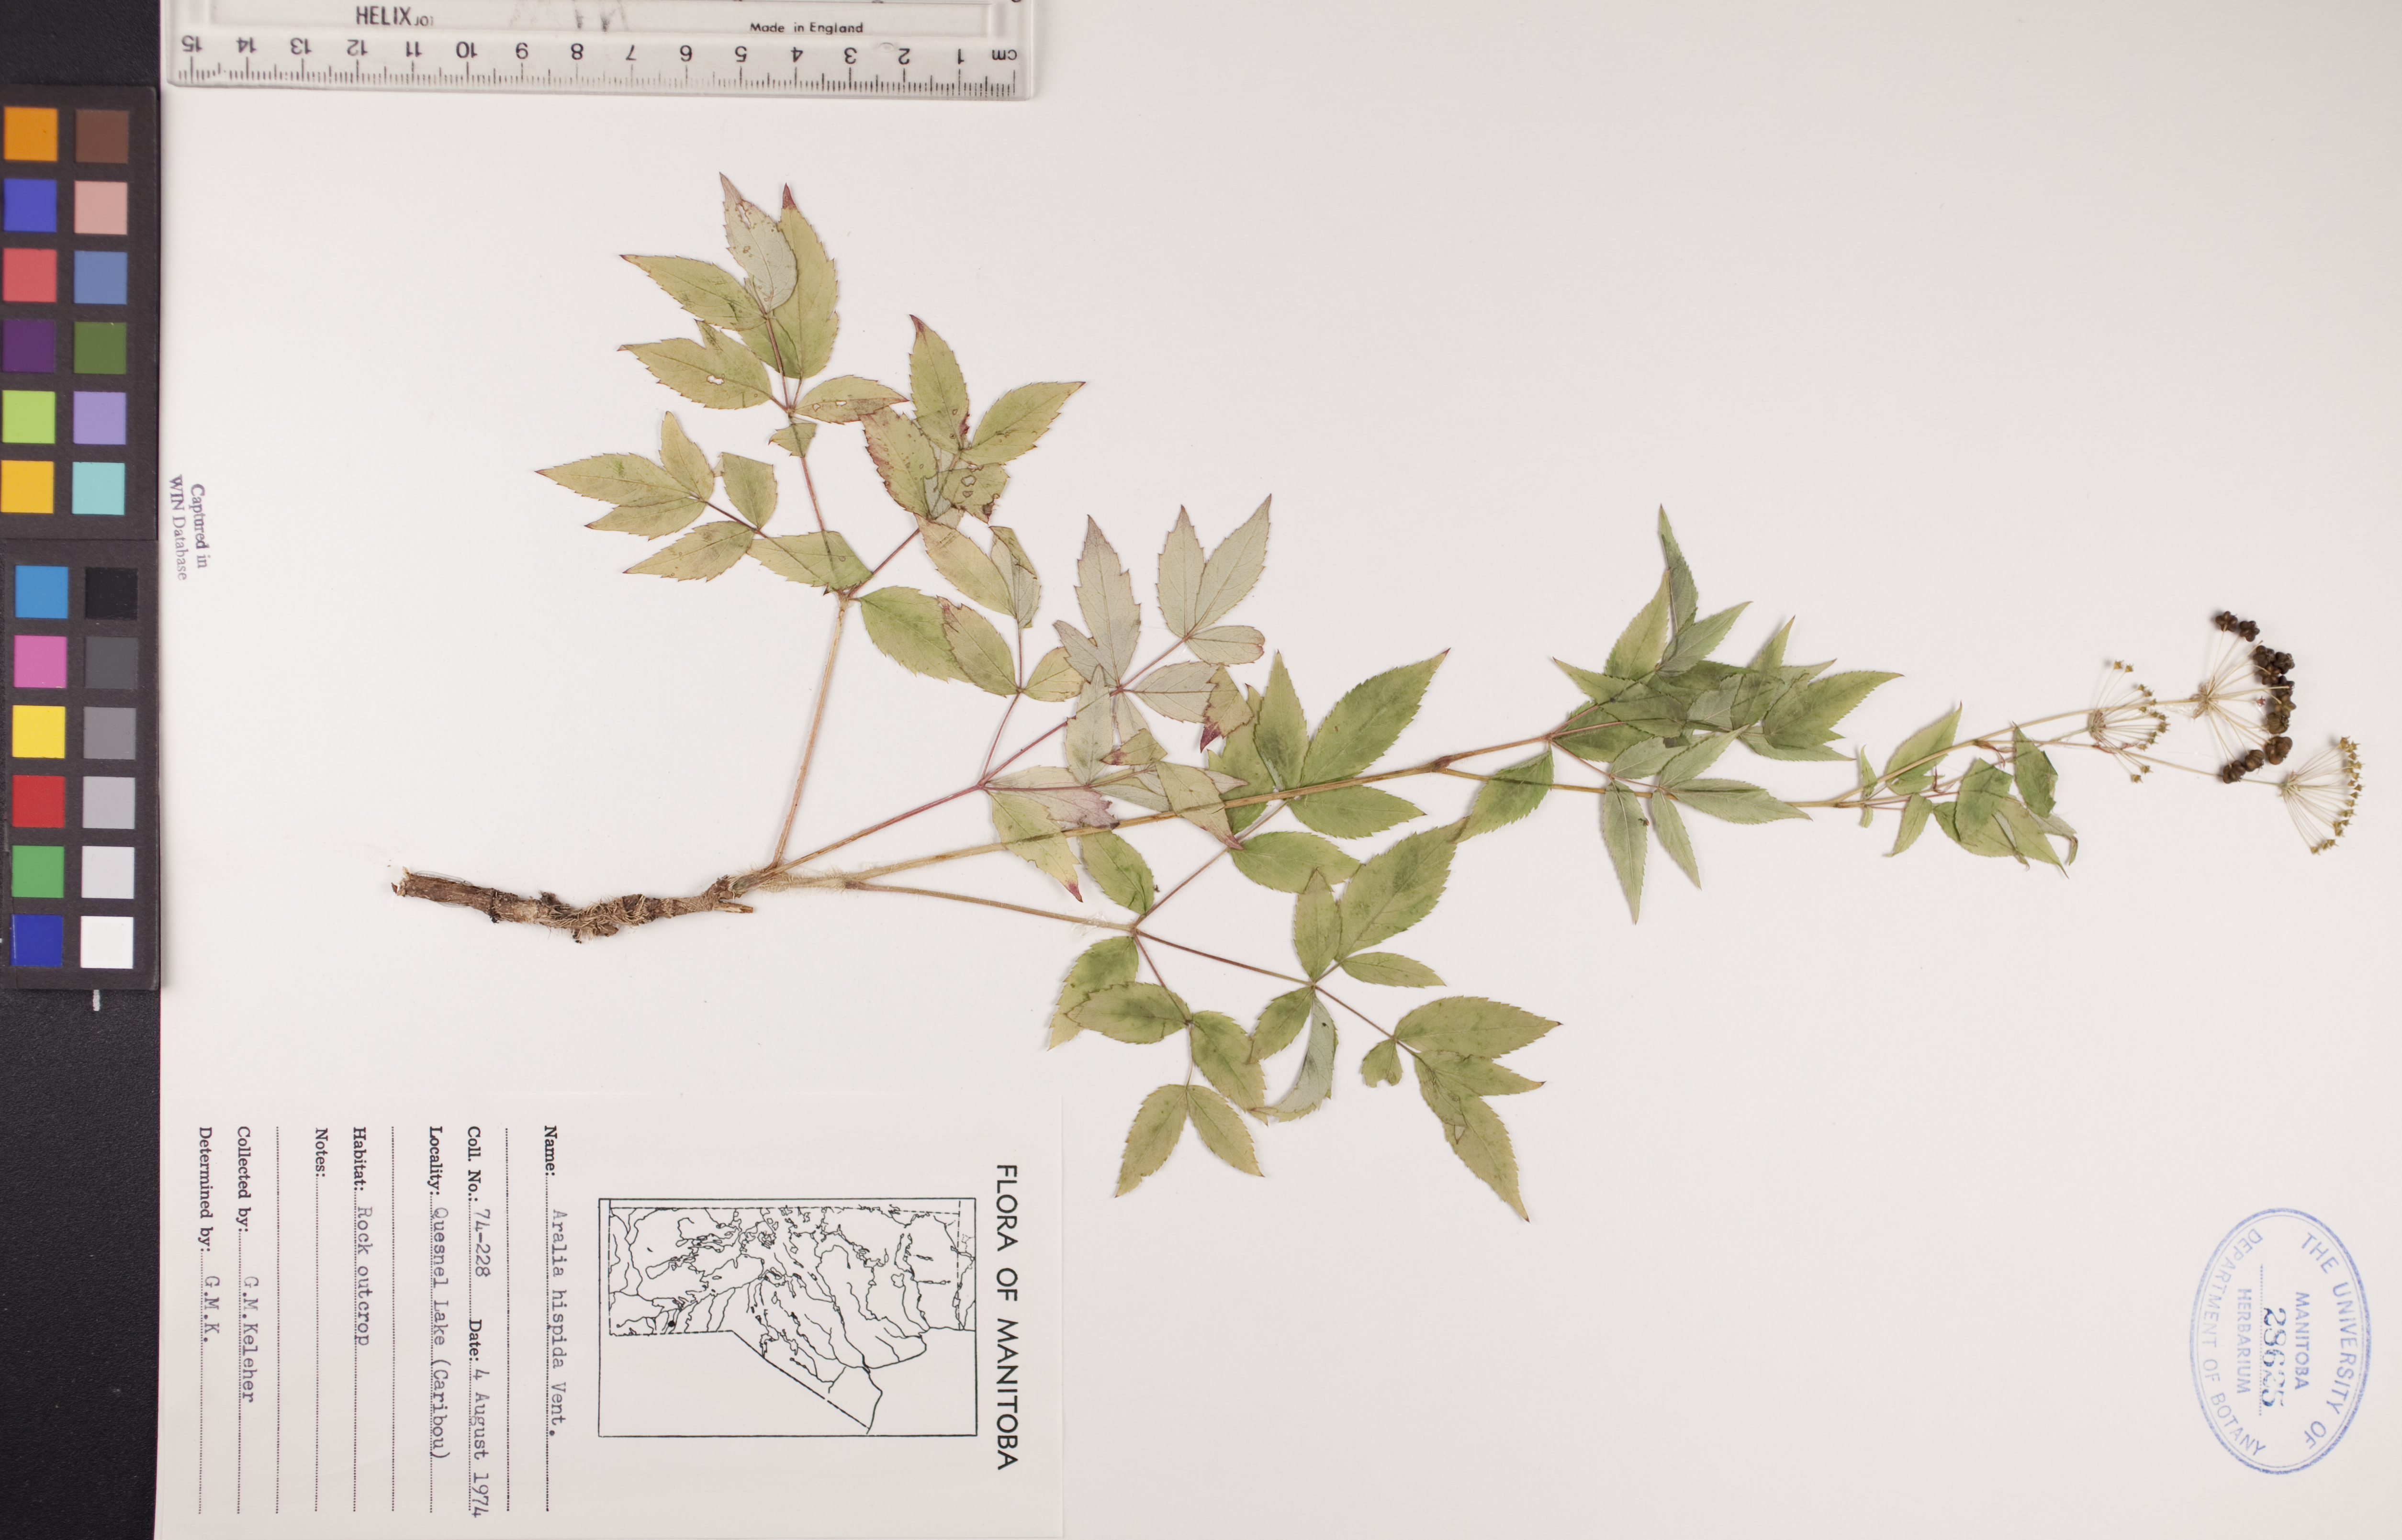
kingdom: Plantae
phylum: Tracheophyta
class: Magnoliopsida
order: Apiales
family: Araliaceae
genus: Aralia
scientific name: Aralia hispida
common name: Bristly sarsaparilla
